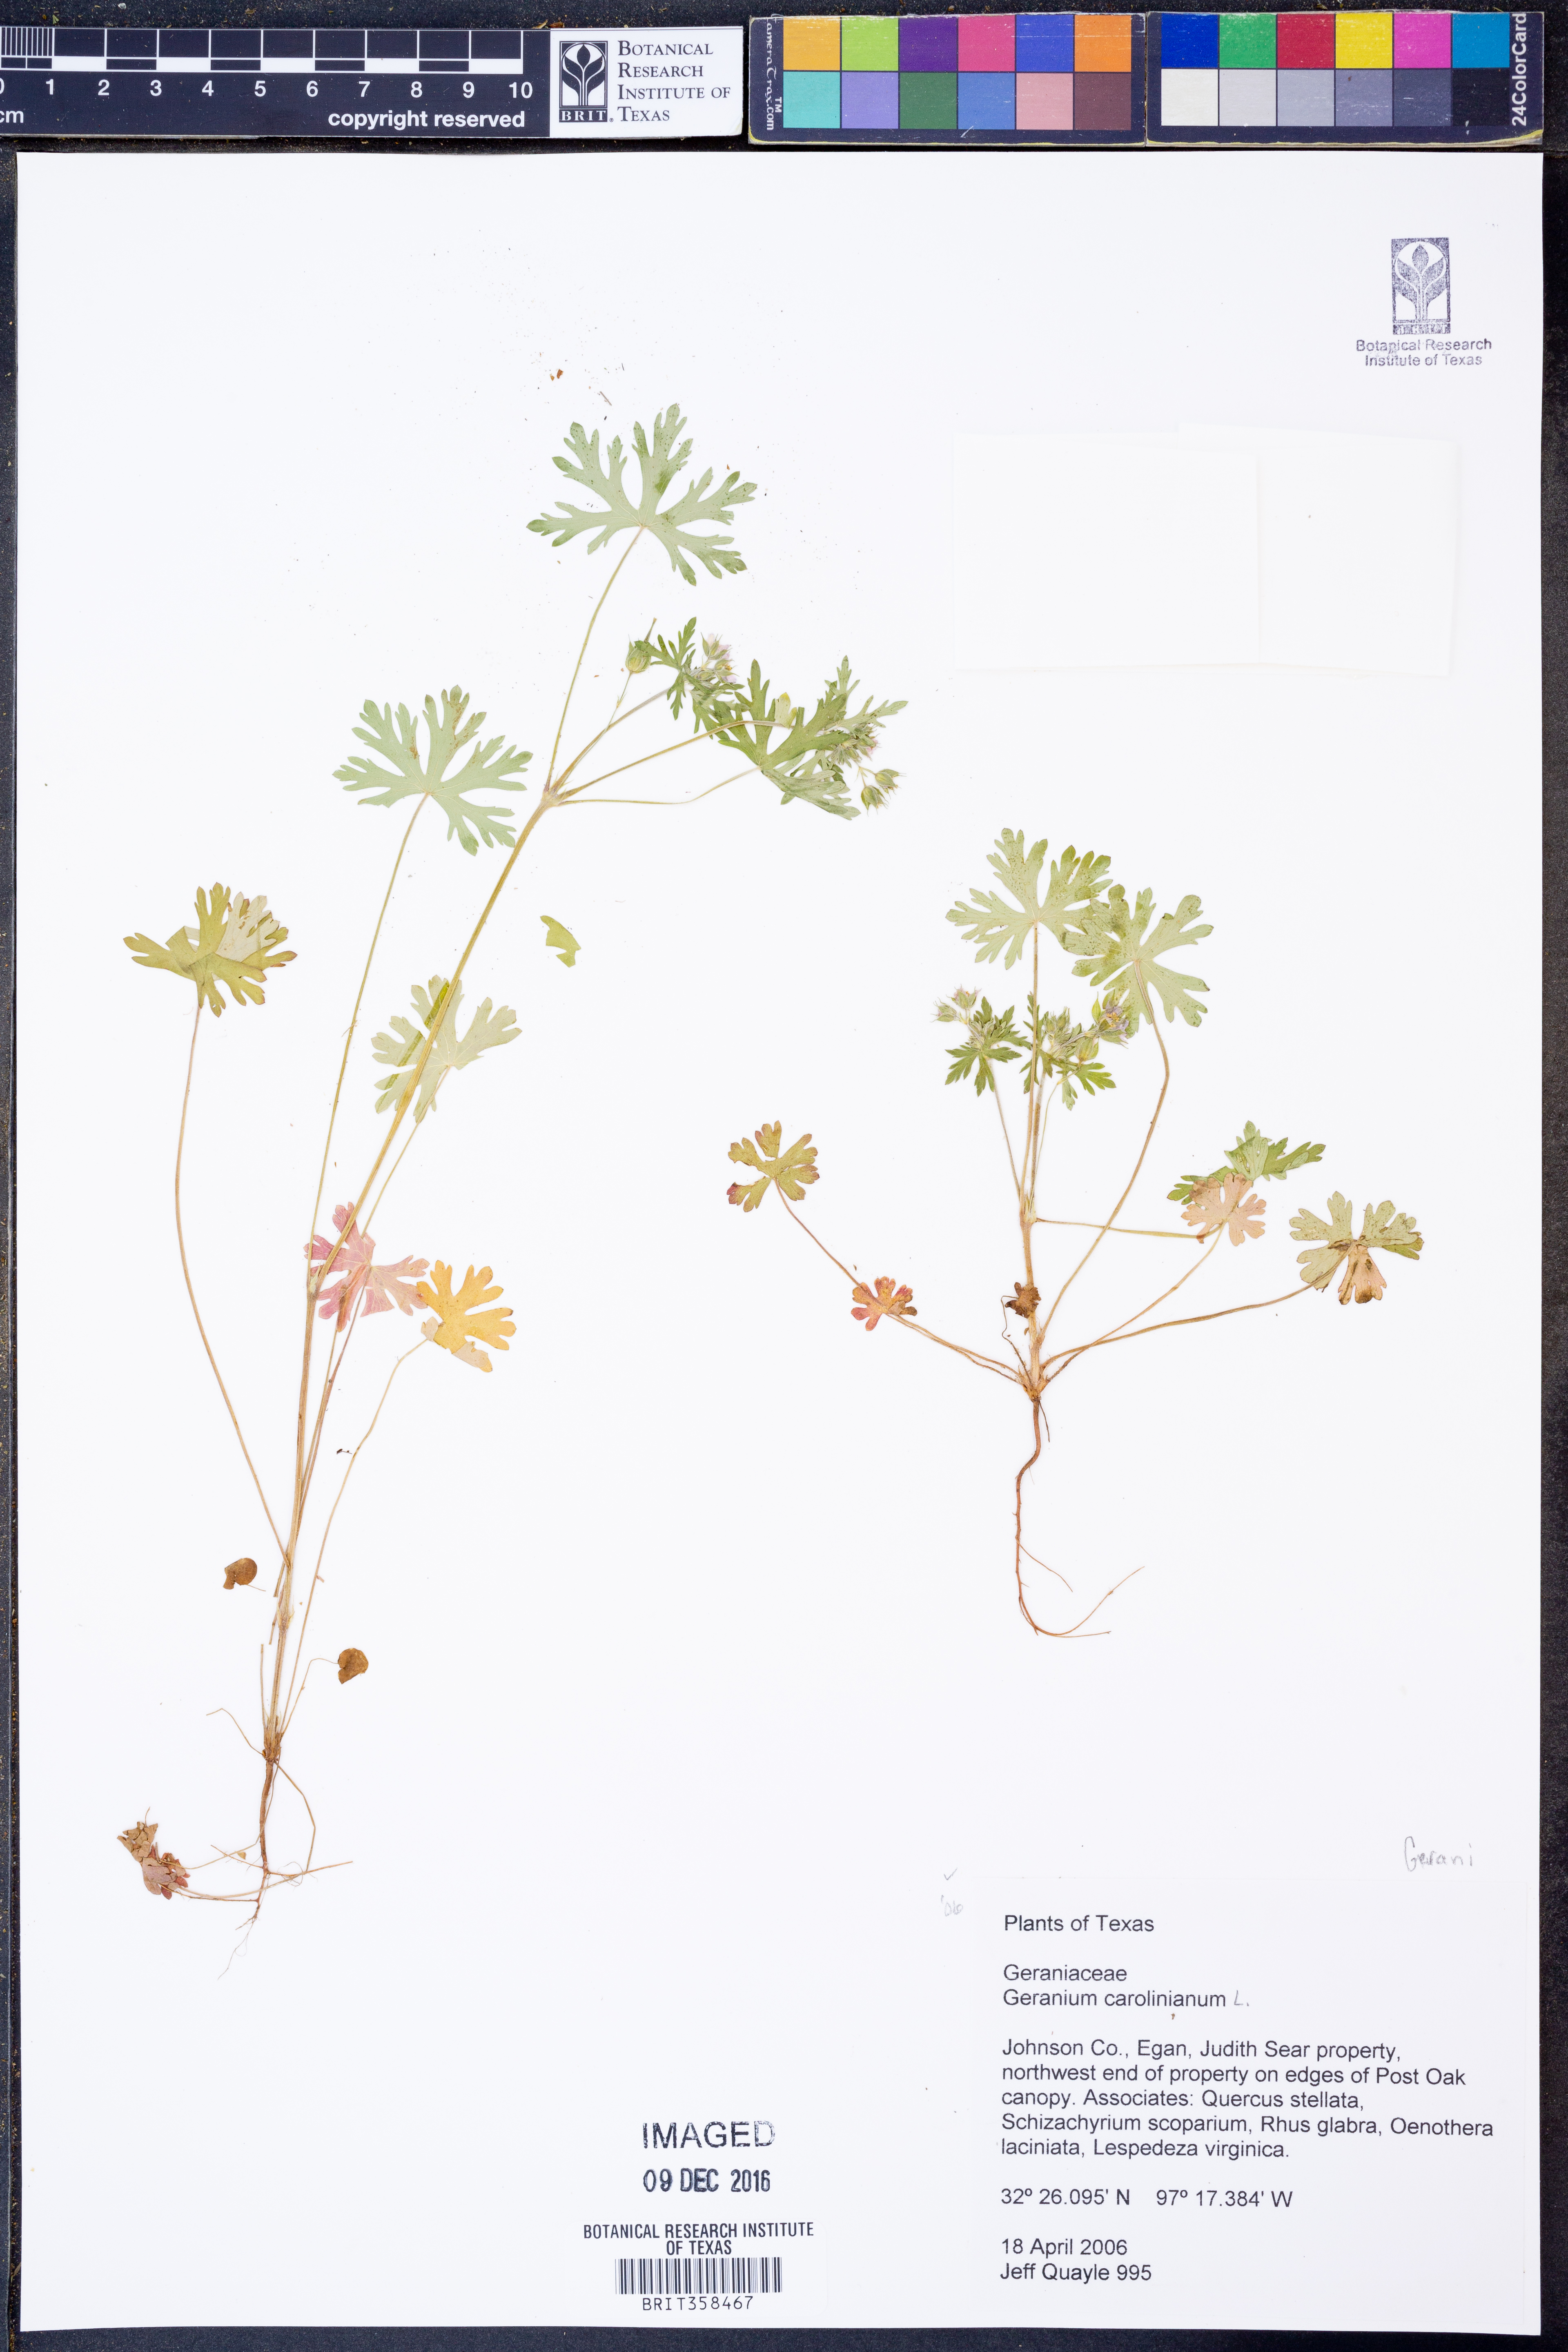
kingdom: Plantae
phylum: Tracheophyta
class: Magnoliopsida
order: Geraniales
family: Geraniaceae
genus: Geranium
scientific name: Geranium carolinianum
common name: Carolina crane's-bill
